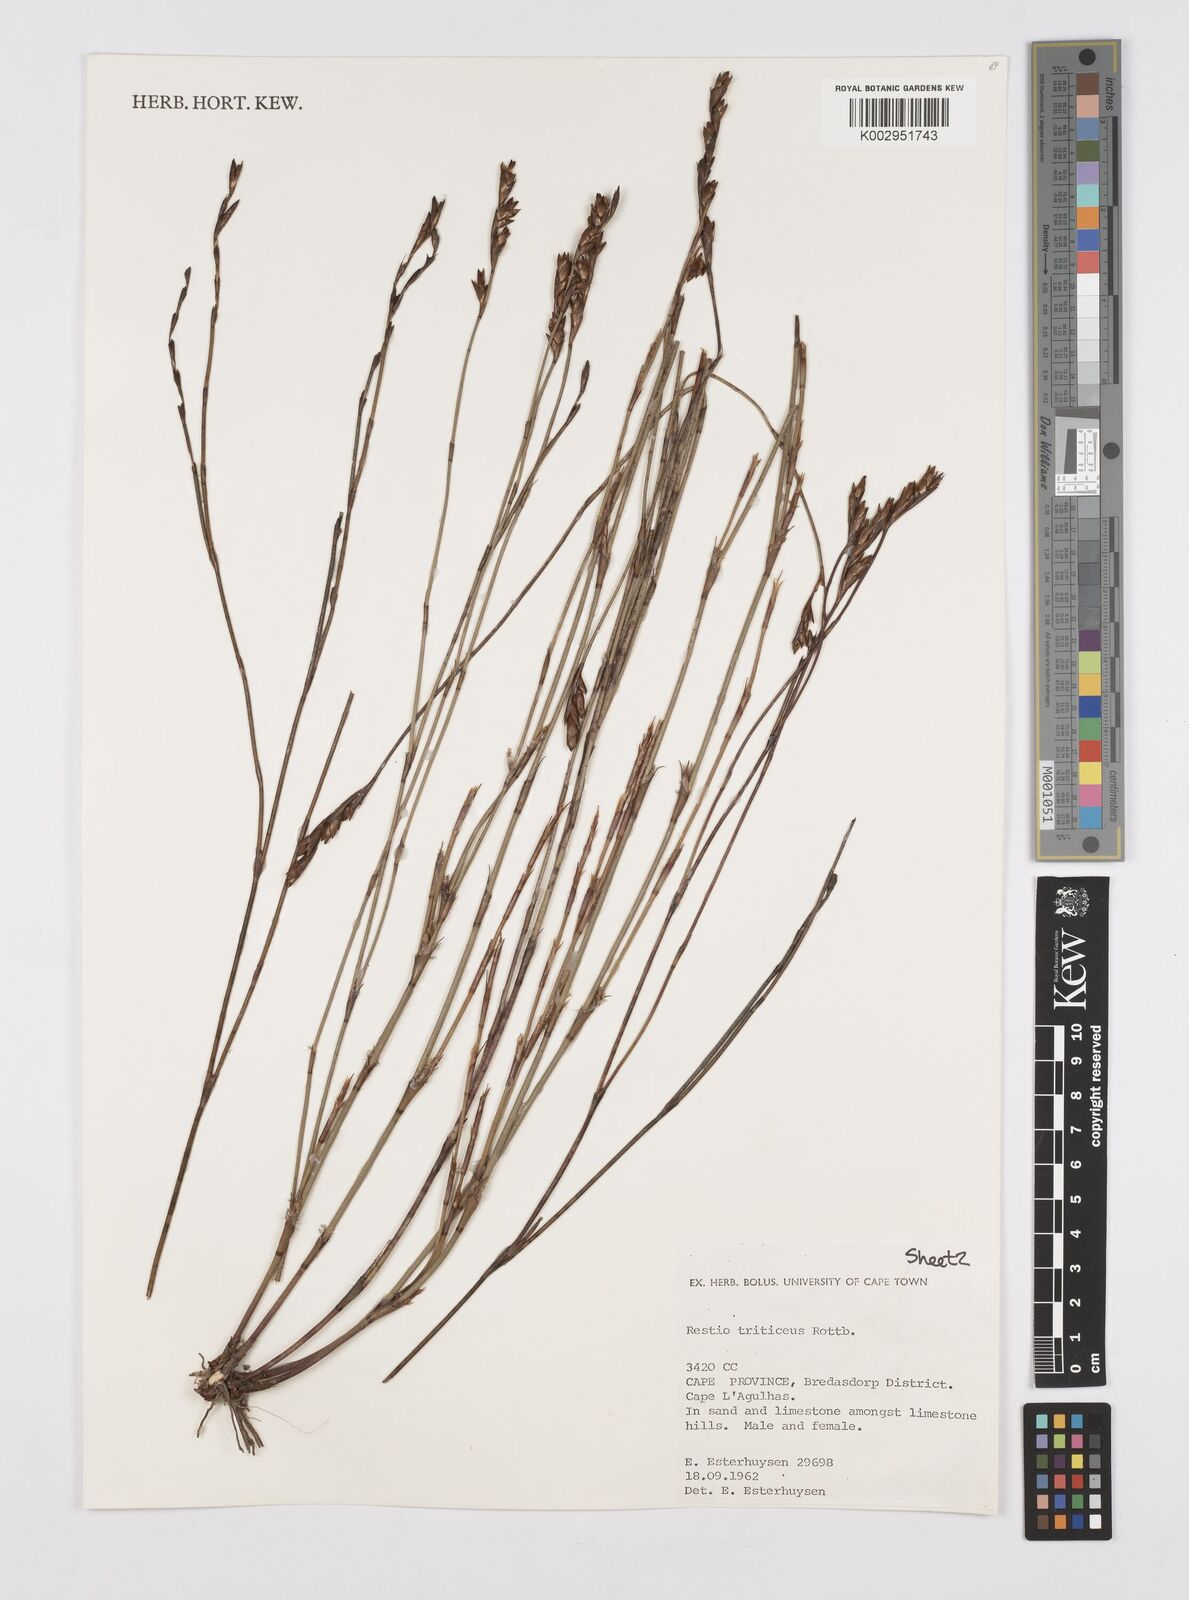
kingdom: Plantae
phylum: Tracheophyta
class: Liliopsida
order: Poales
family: Restionaceae
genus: Restio
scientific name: Restio triticeus
